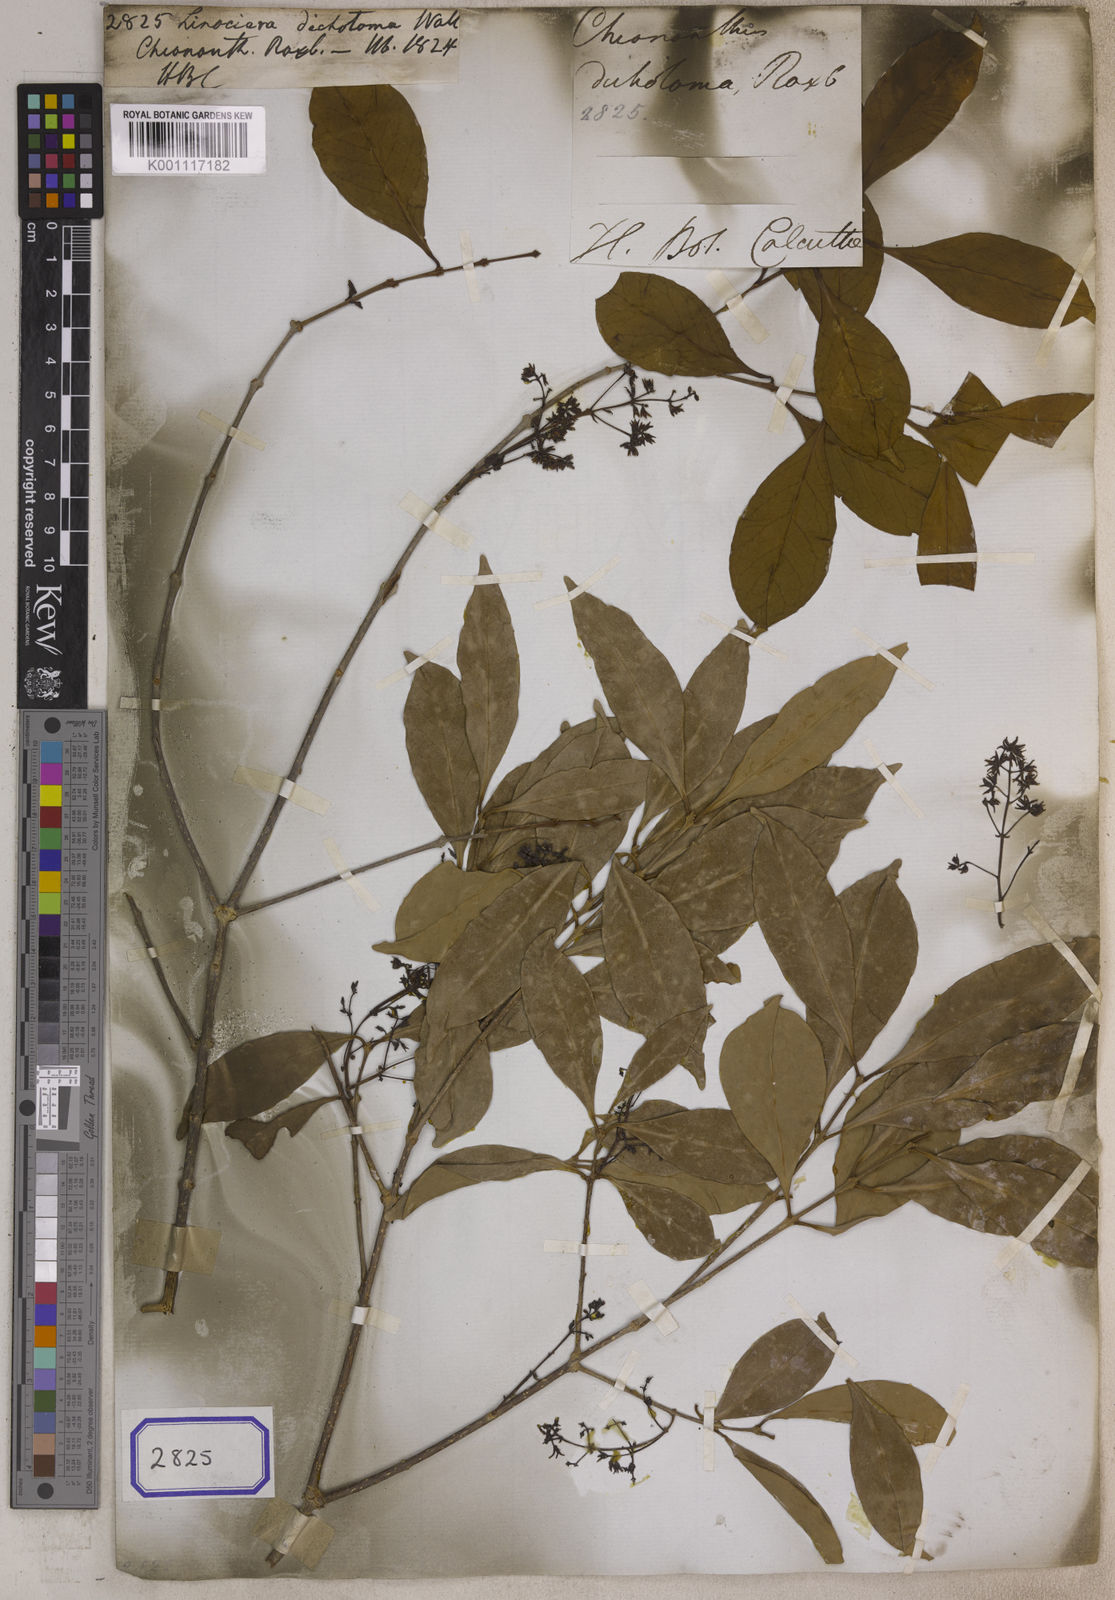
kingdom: Plantae
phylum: Tracheophyta
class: Magnoliopsida
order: Lamiales
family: Oleaceae
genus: Chionanthus
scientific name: Chionanthus
